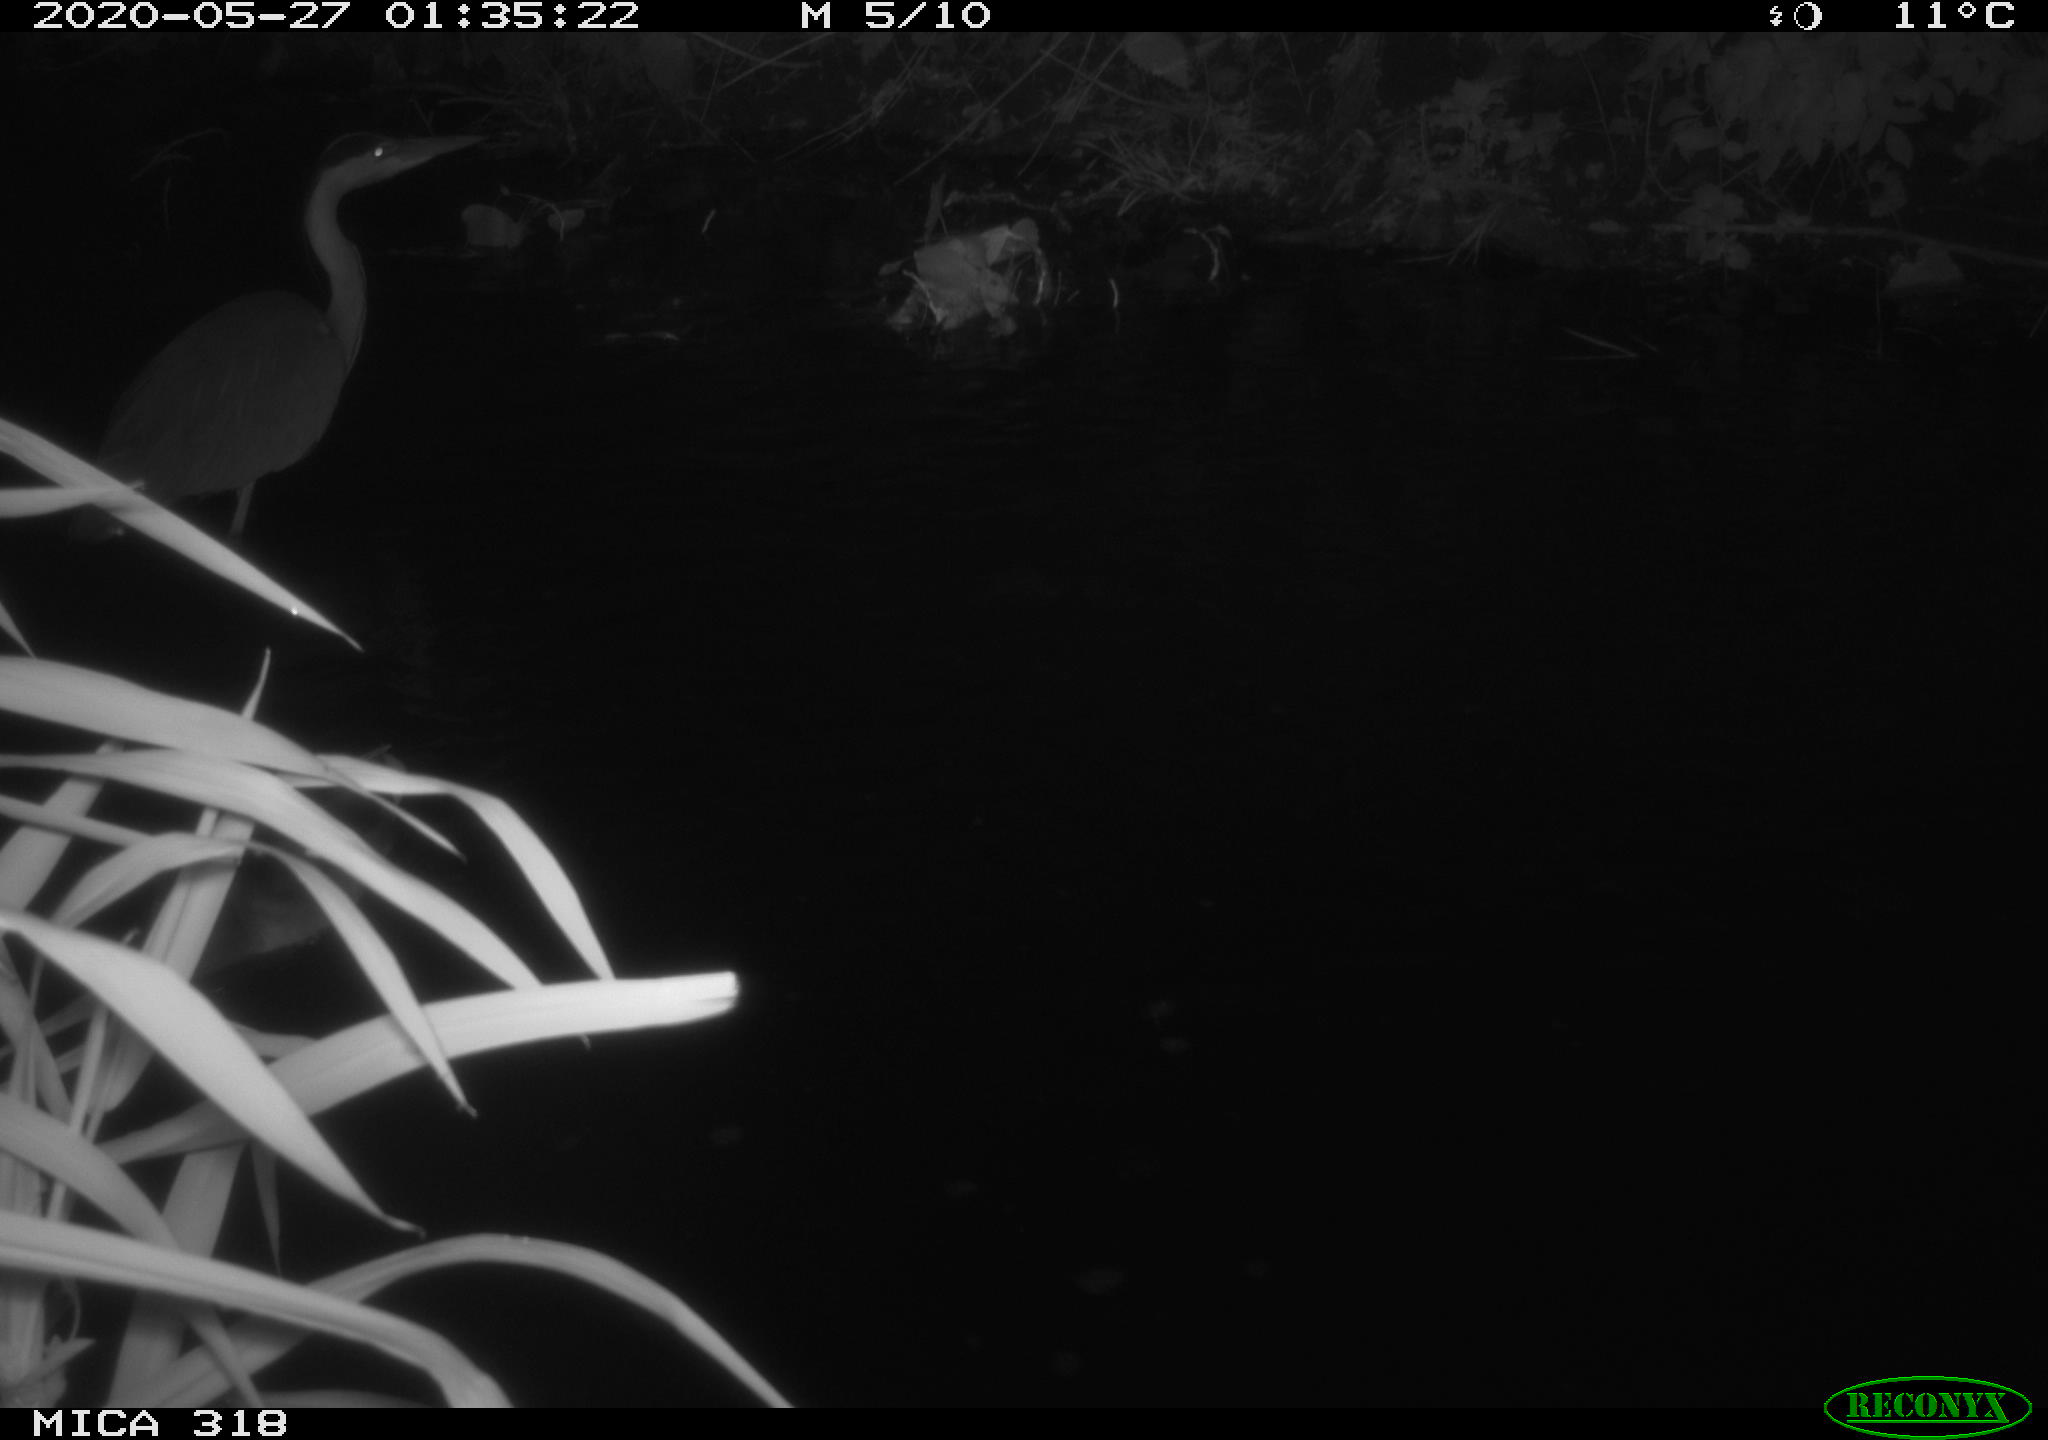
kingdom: Animalia
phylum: Chordata
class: Aves
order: Pelecaniformes
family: Ardeidae
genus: Ardea
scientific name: Ardea cinerea
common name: Grey heron
